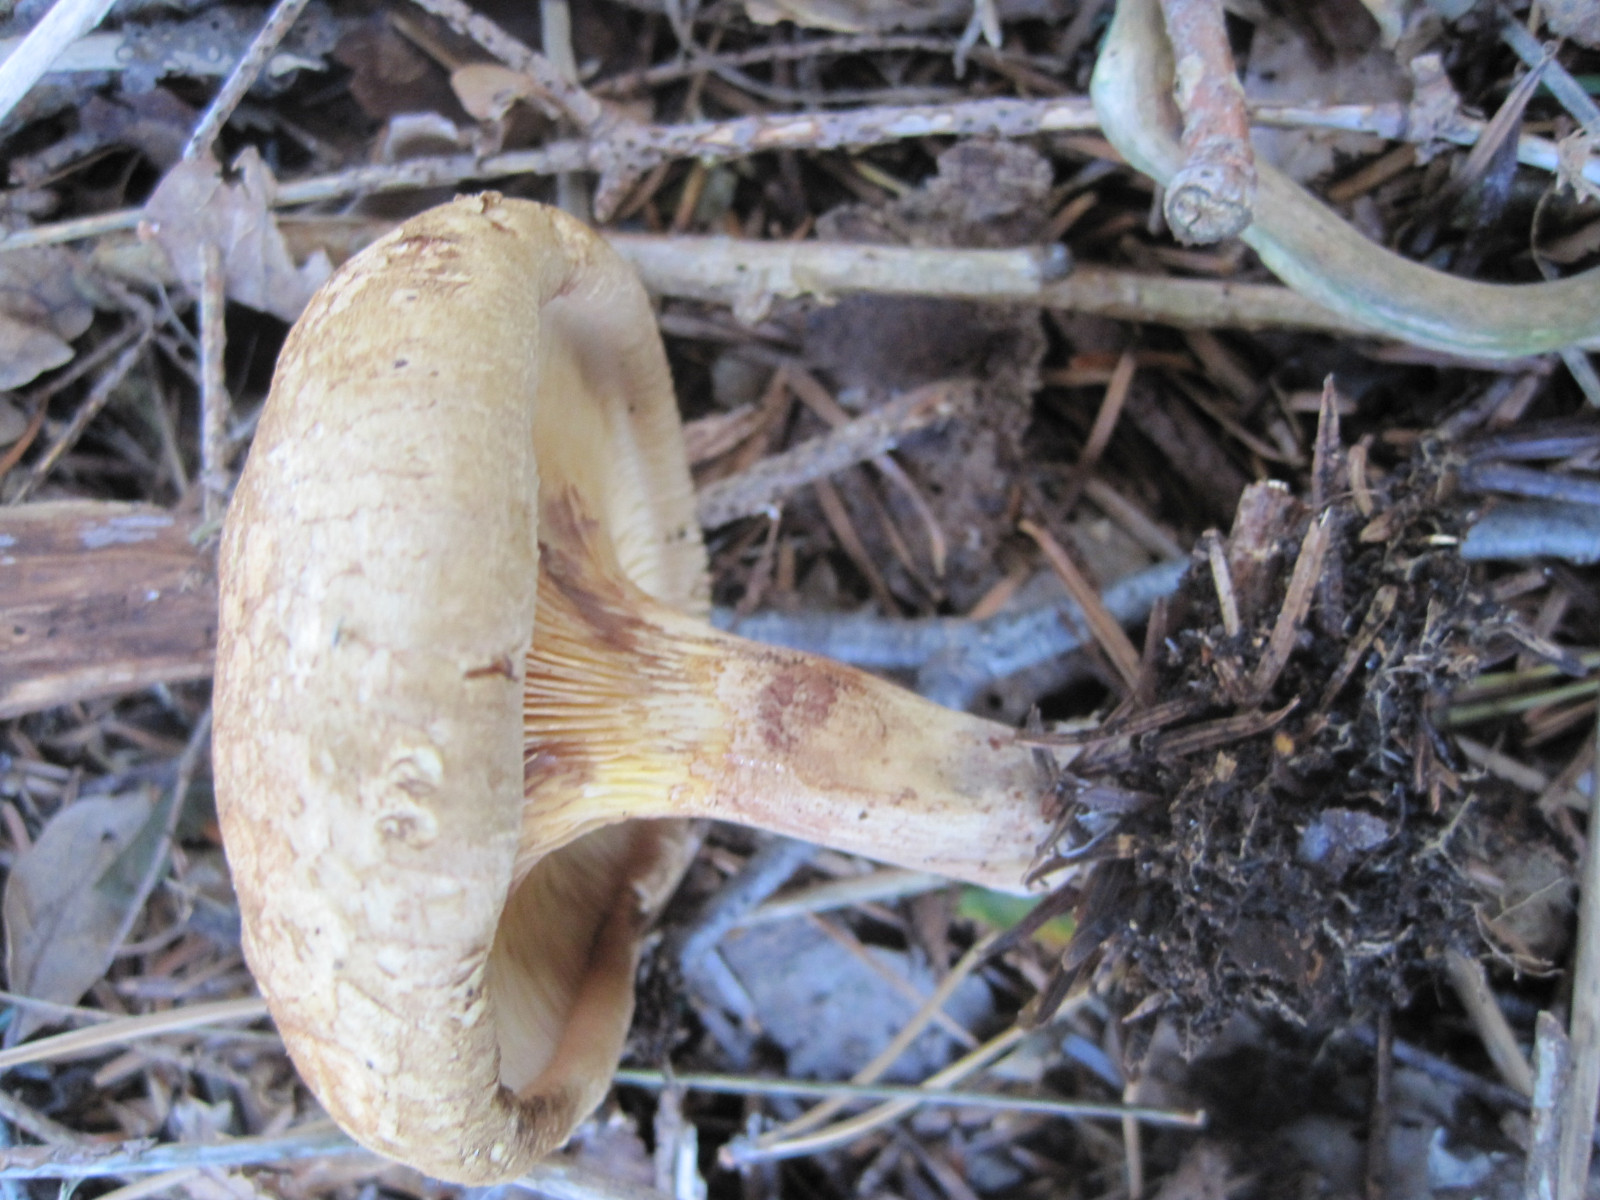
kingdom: Fungi
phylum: Basidiomycota
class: Agaricomycetes
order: Boletales
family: Paxillaceae
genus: Paxillus
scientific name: Paxillus involutus
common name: almindelig netbladhat
